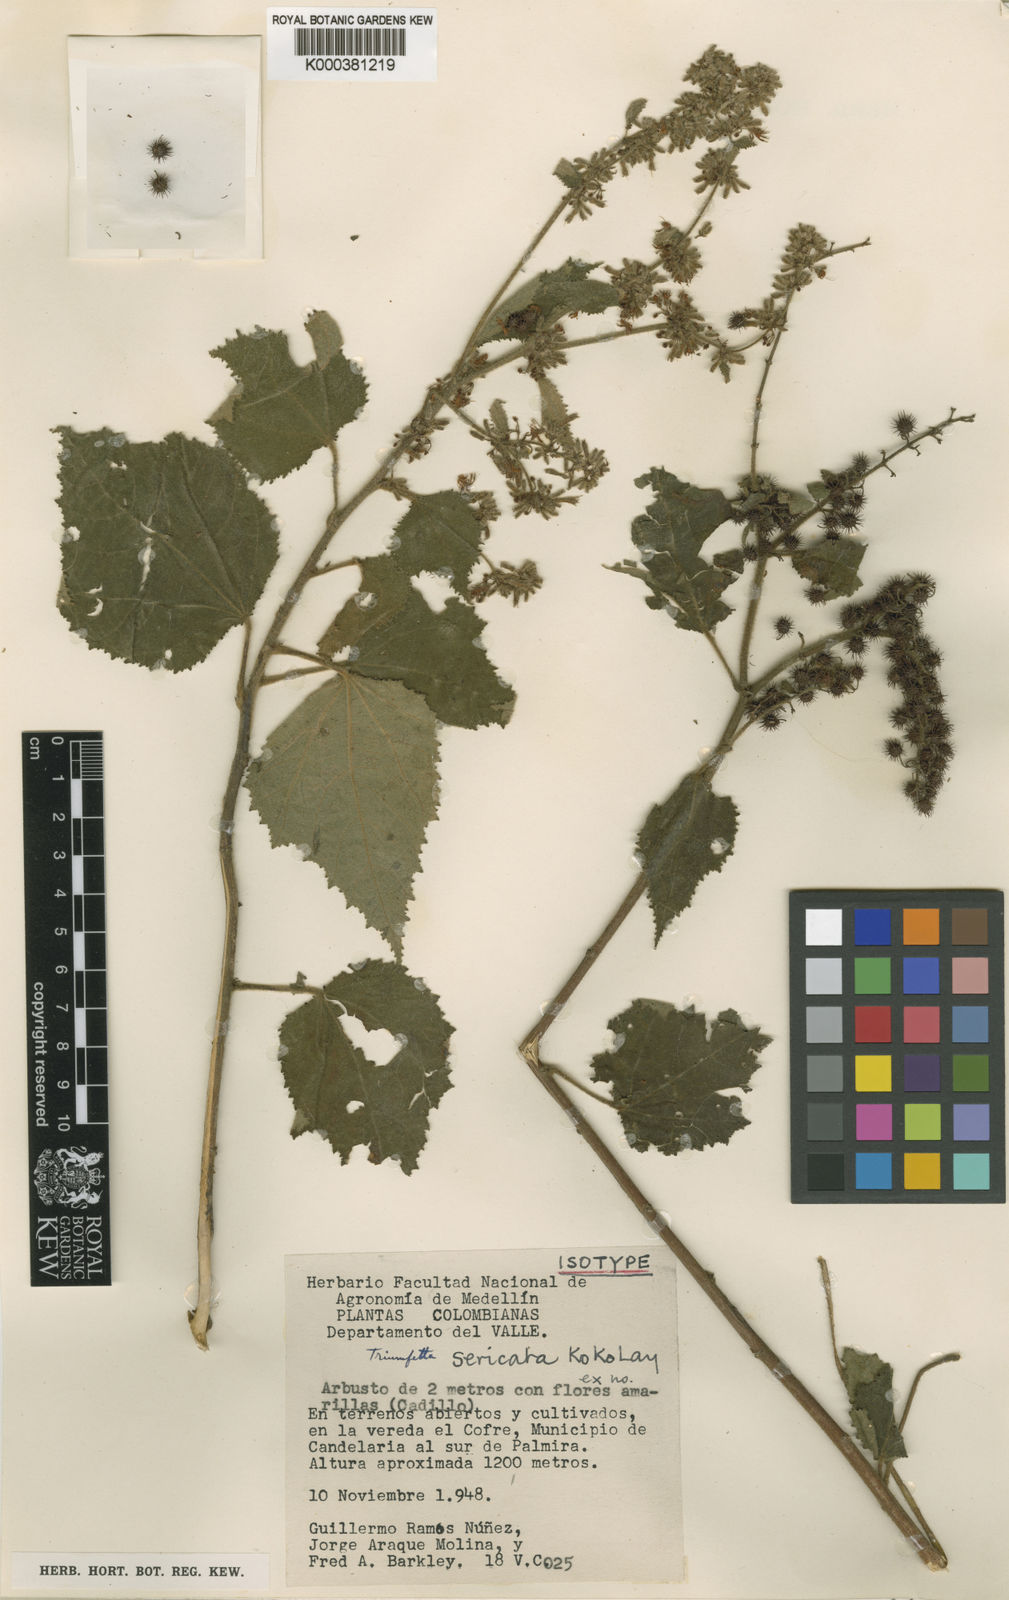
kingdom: Plantae
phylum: Tracheophyta
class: Magnoliopsida
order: Malvales
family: Malvaceae
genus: Triumfetta
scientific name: Triumfetta sericata
